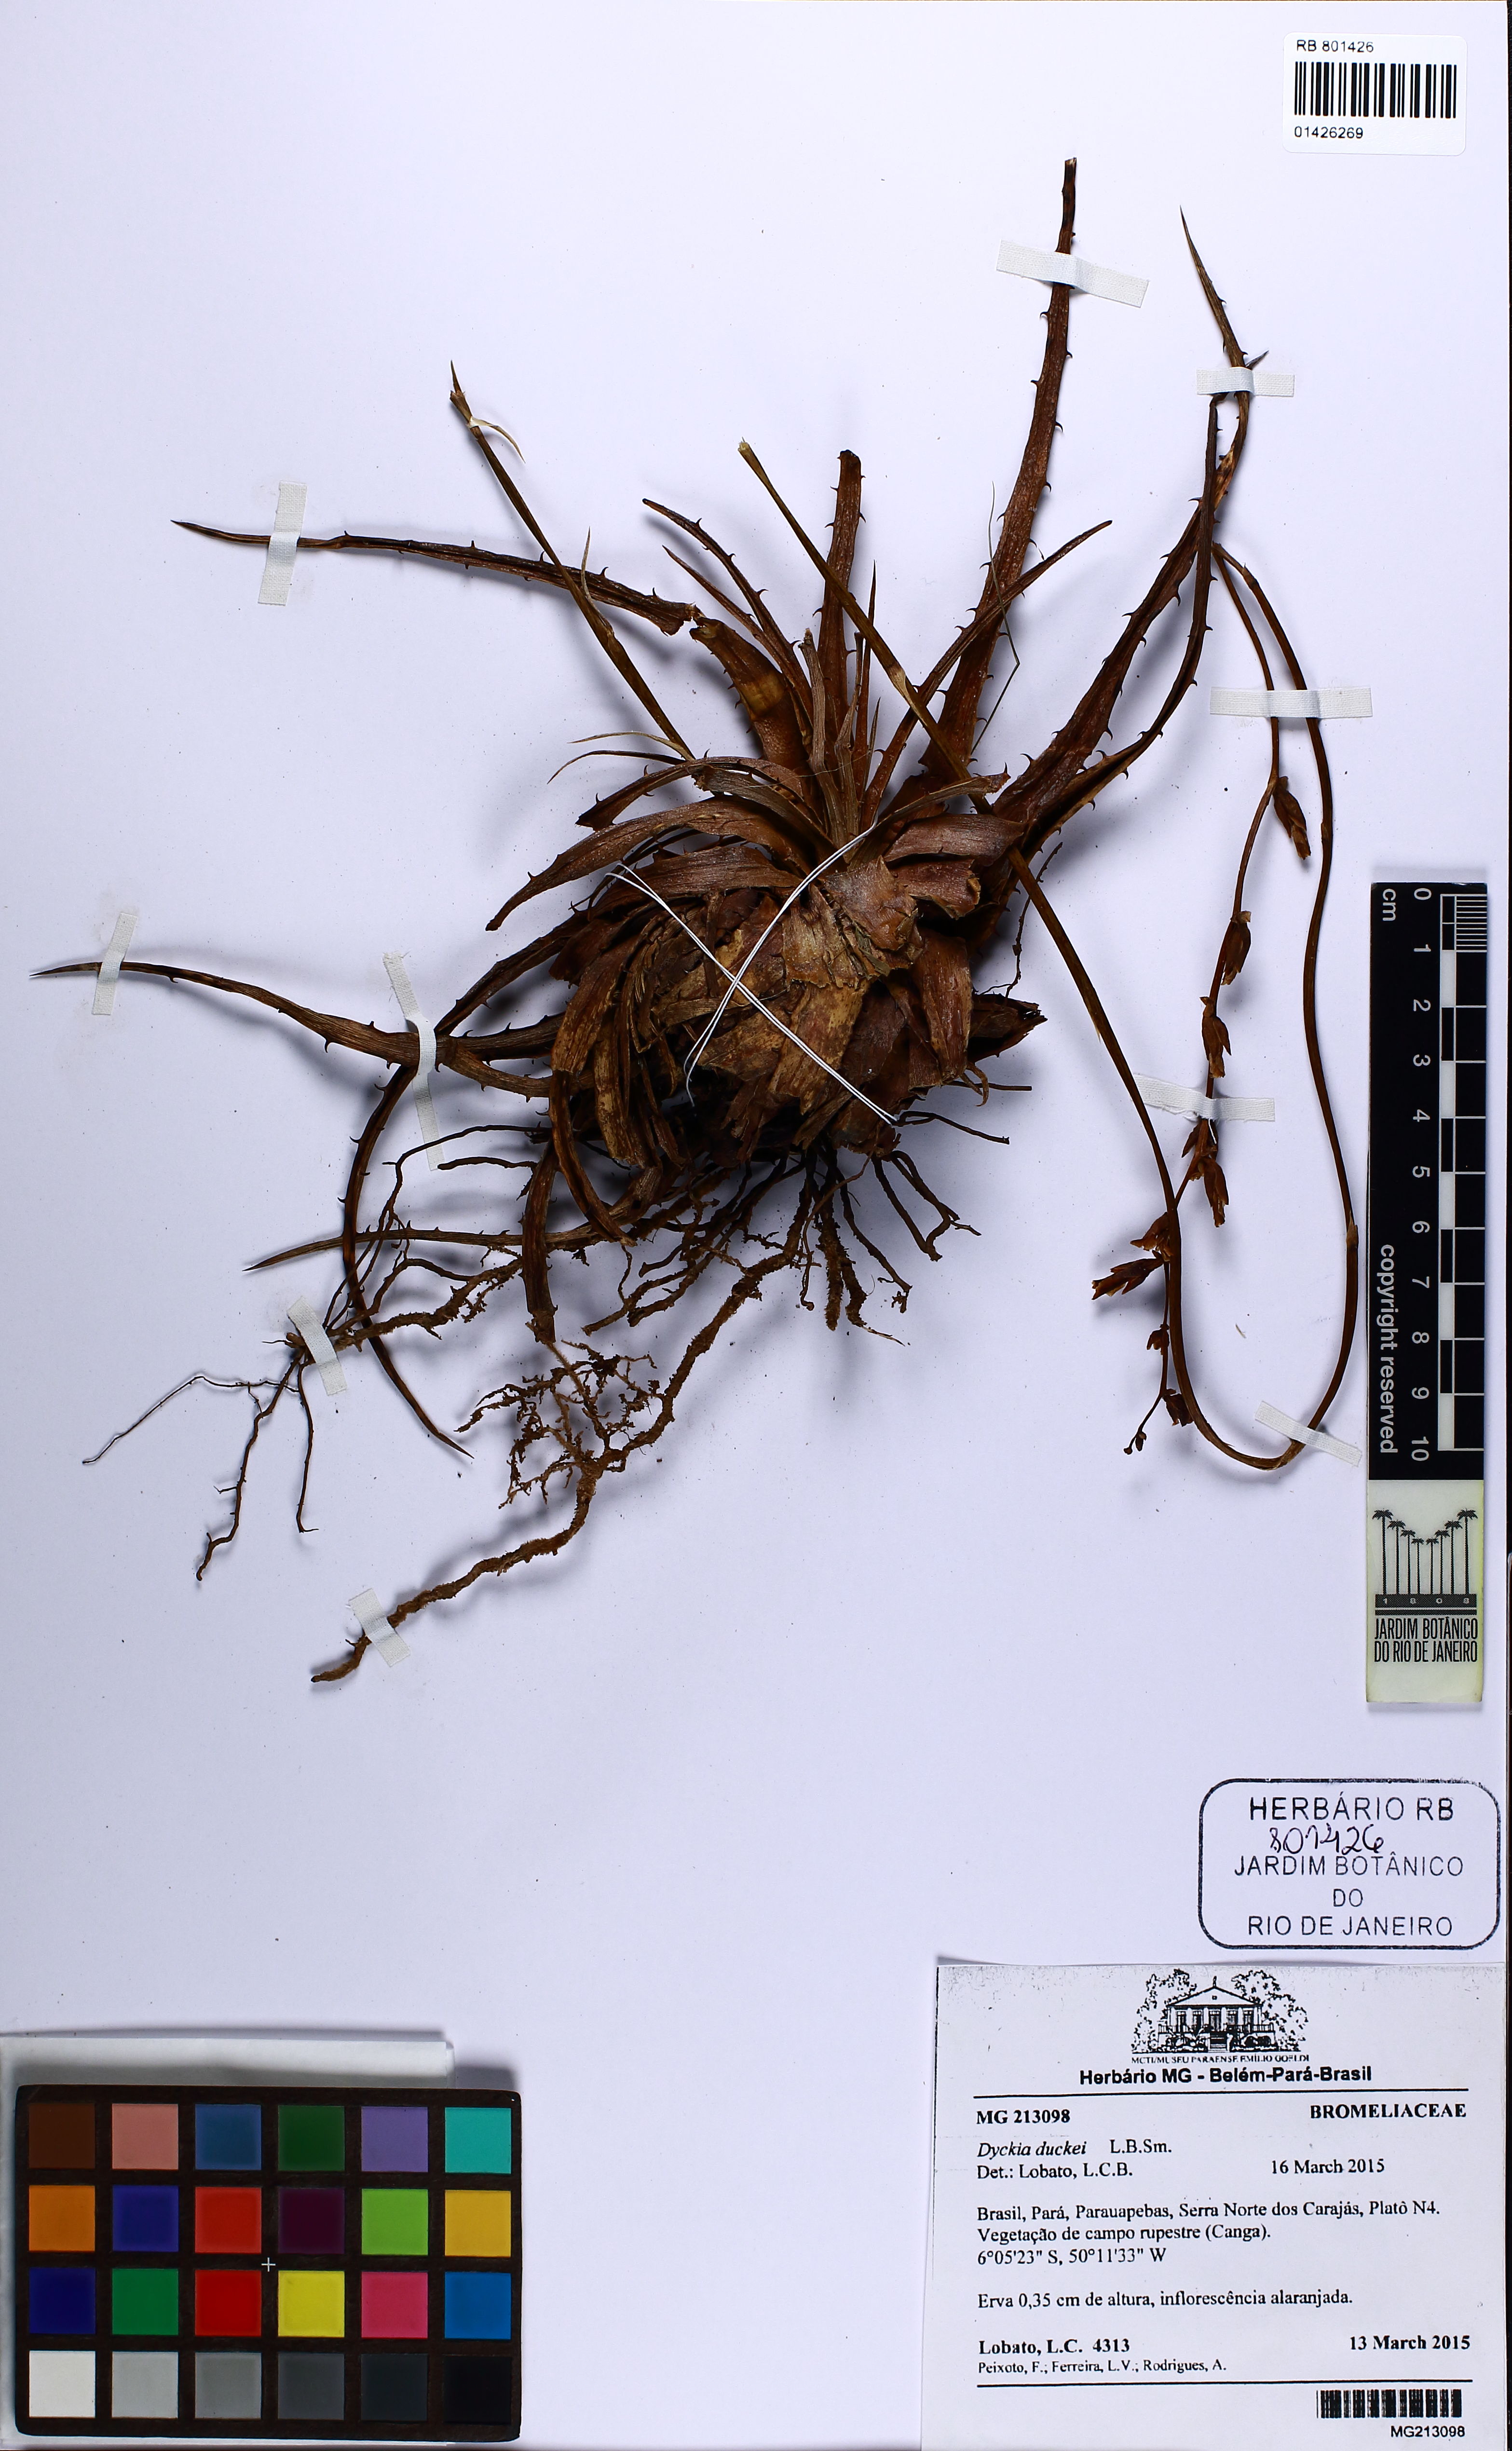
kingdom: Plantae
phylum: Tracheophyta
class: Liliopsida
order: Poales
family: Bromeliaceae
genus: Dyckia
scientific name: Dyckia duckei
